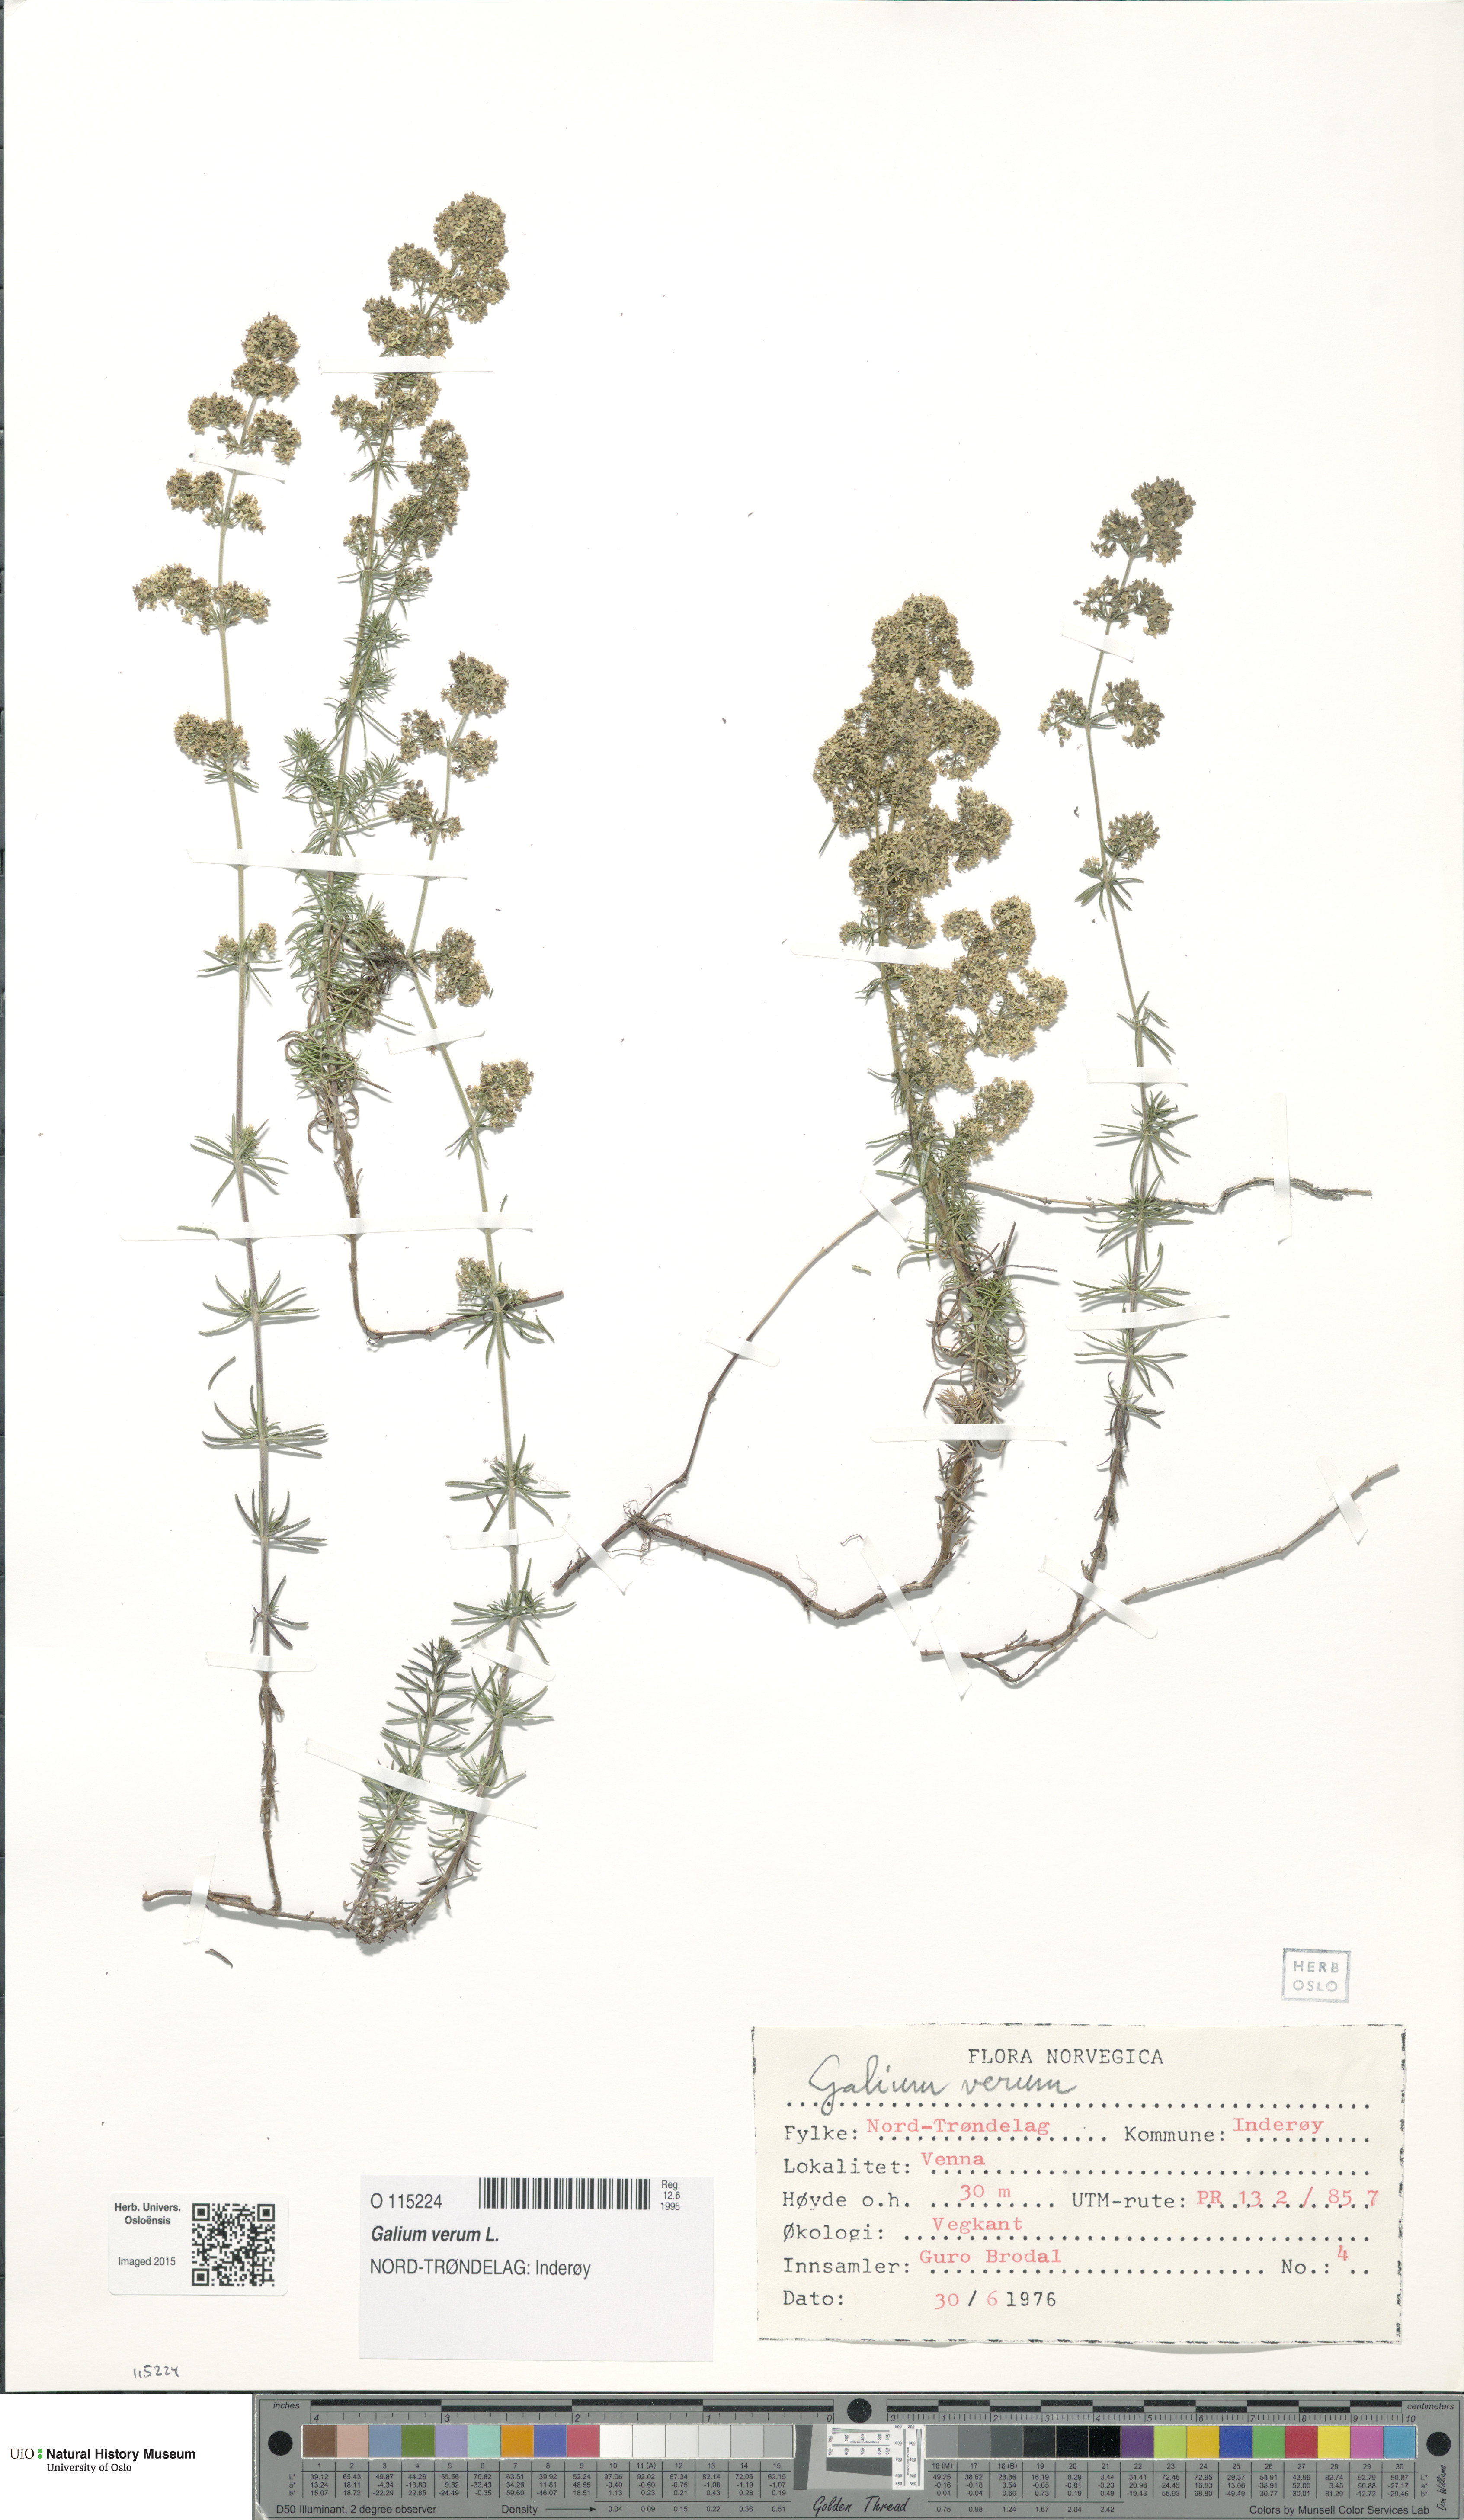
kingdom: Plantae
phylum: Tracheophyta
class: Magnoliopsida
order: Gentianales
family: Rubiaceae
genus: Galium
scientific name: Galium verum
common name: Lady's bedstraw
